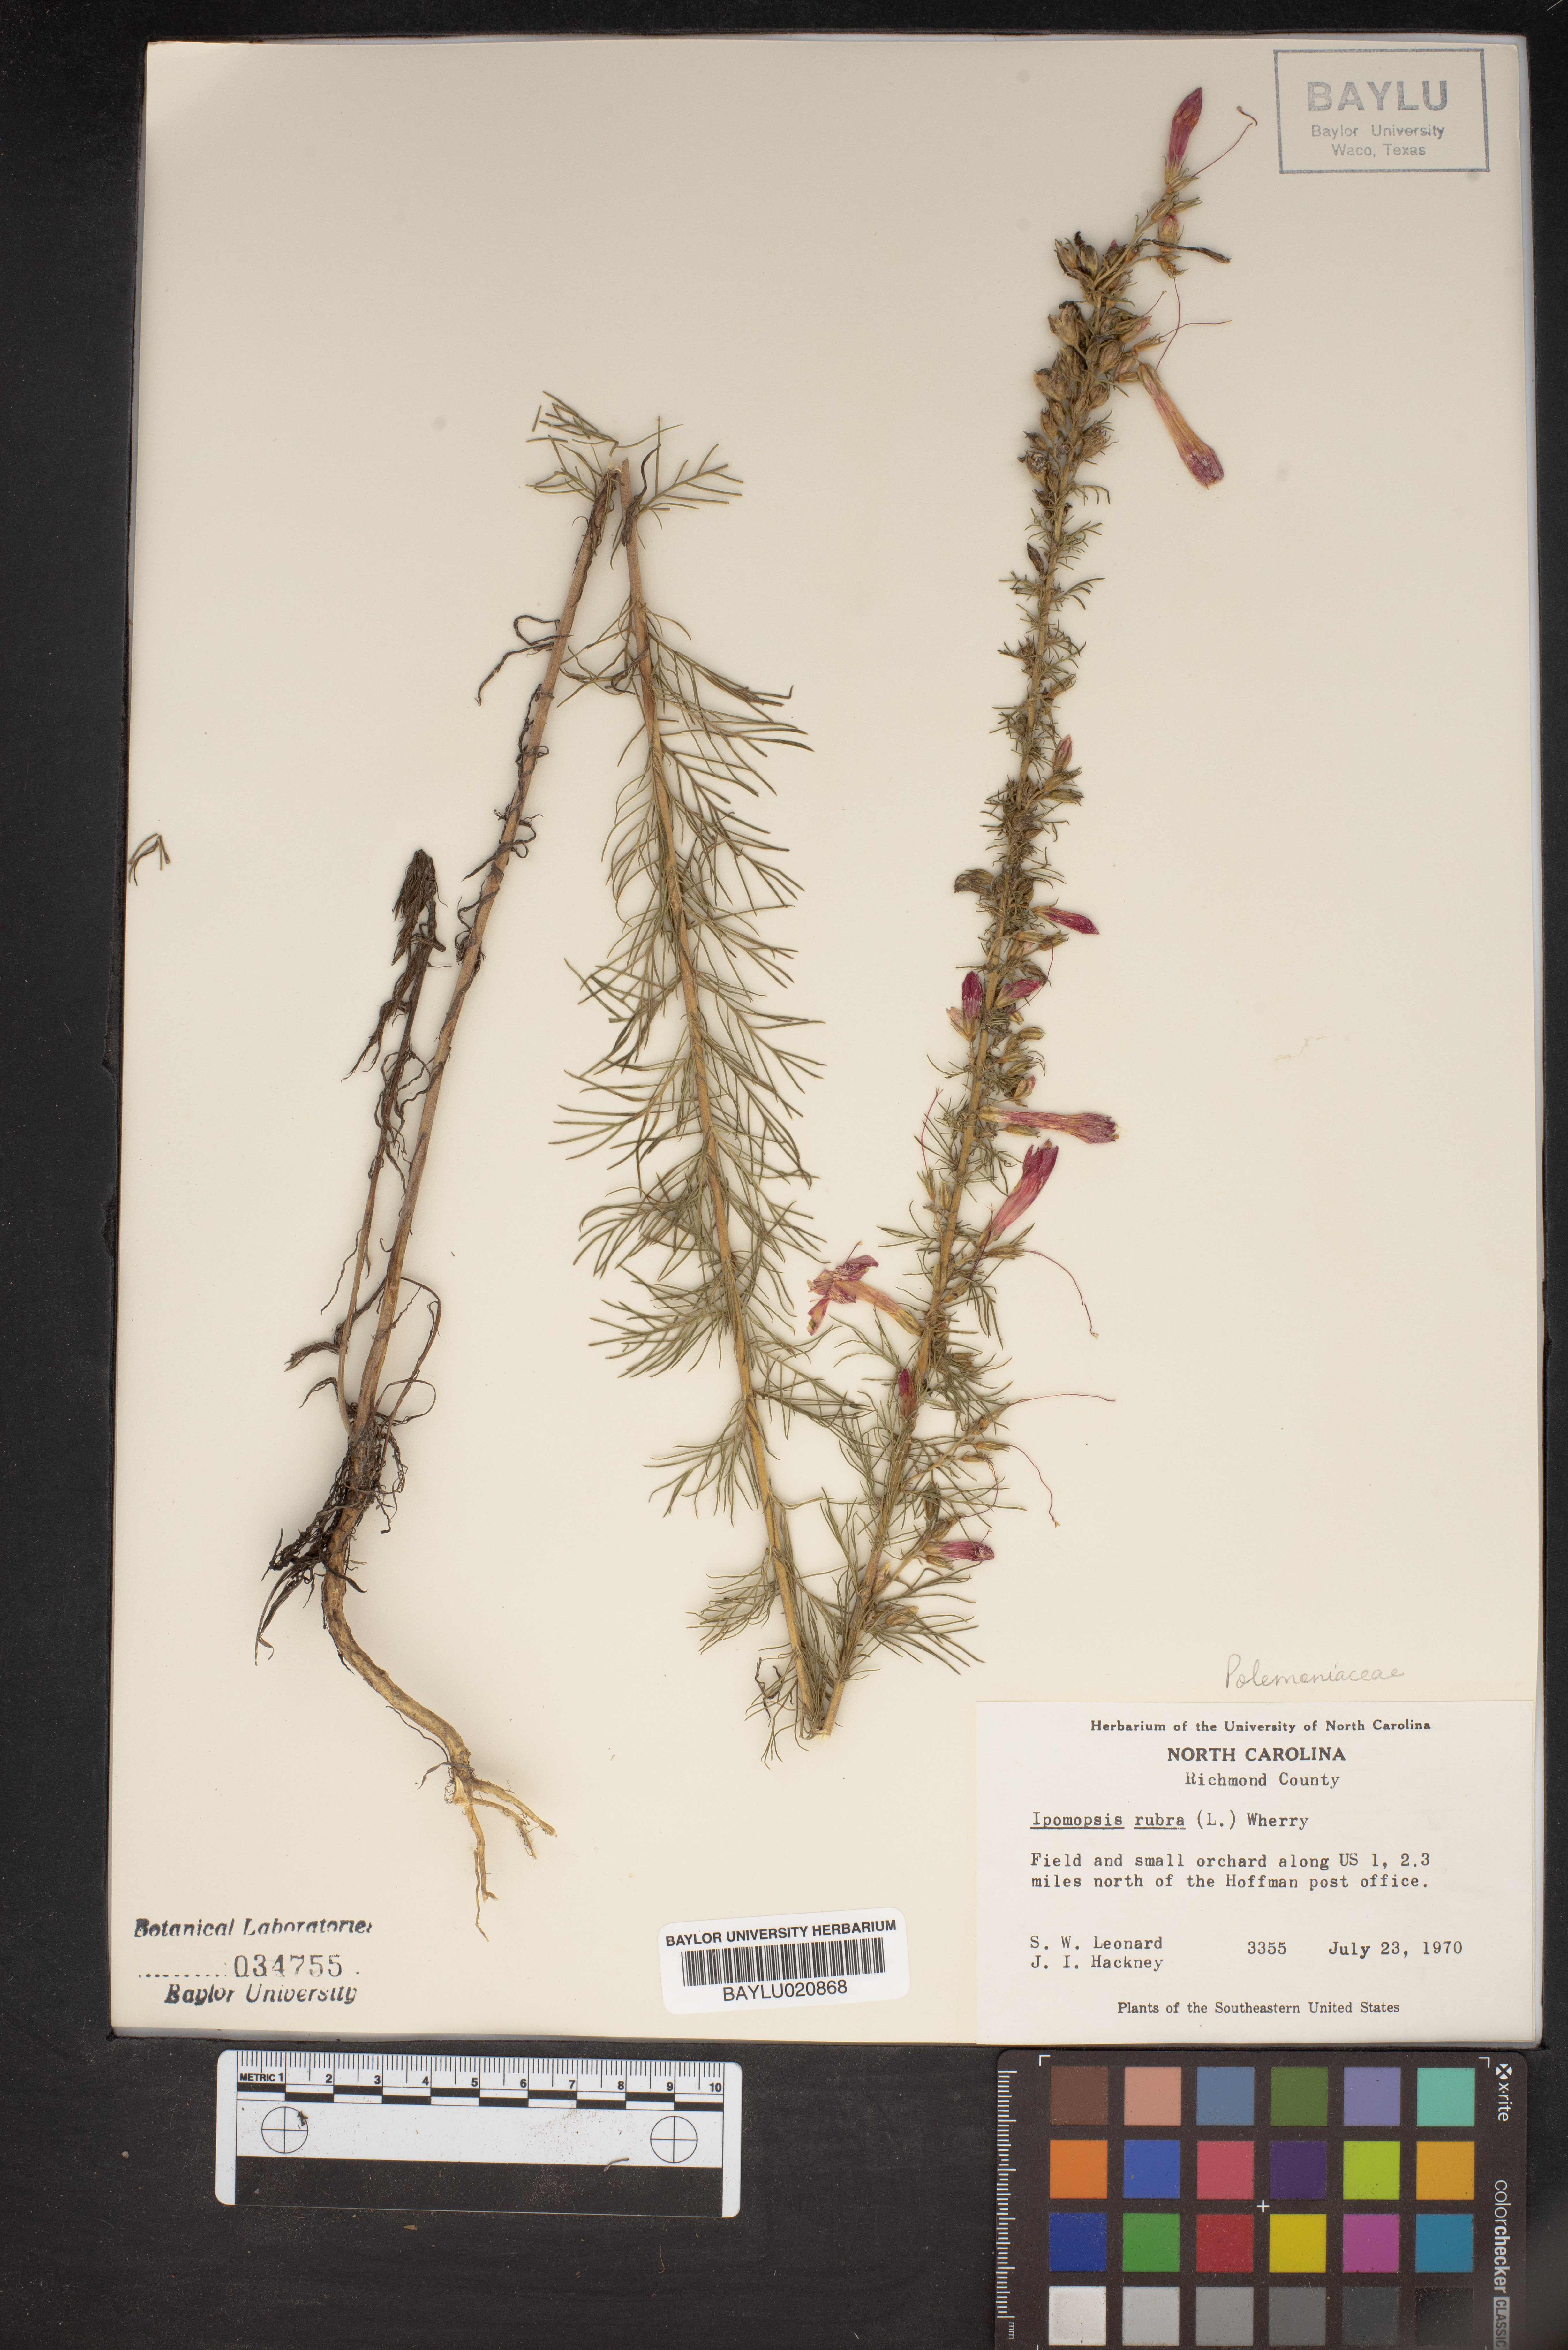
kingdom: Plantae
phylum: Tracheophyta
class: Magnoliopsida
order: Ericales
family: Polemoniaceae
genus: Ipomopsis
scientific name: Ipomopsis rubra
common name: Skyrocket
